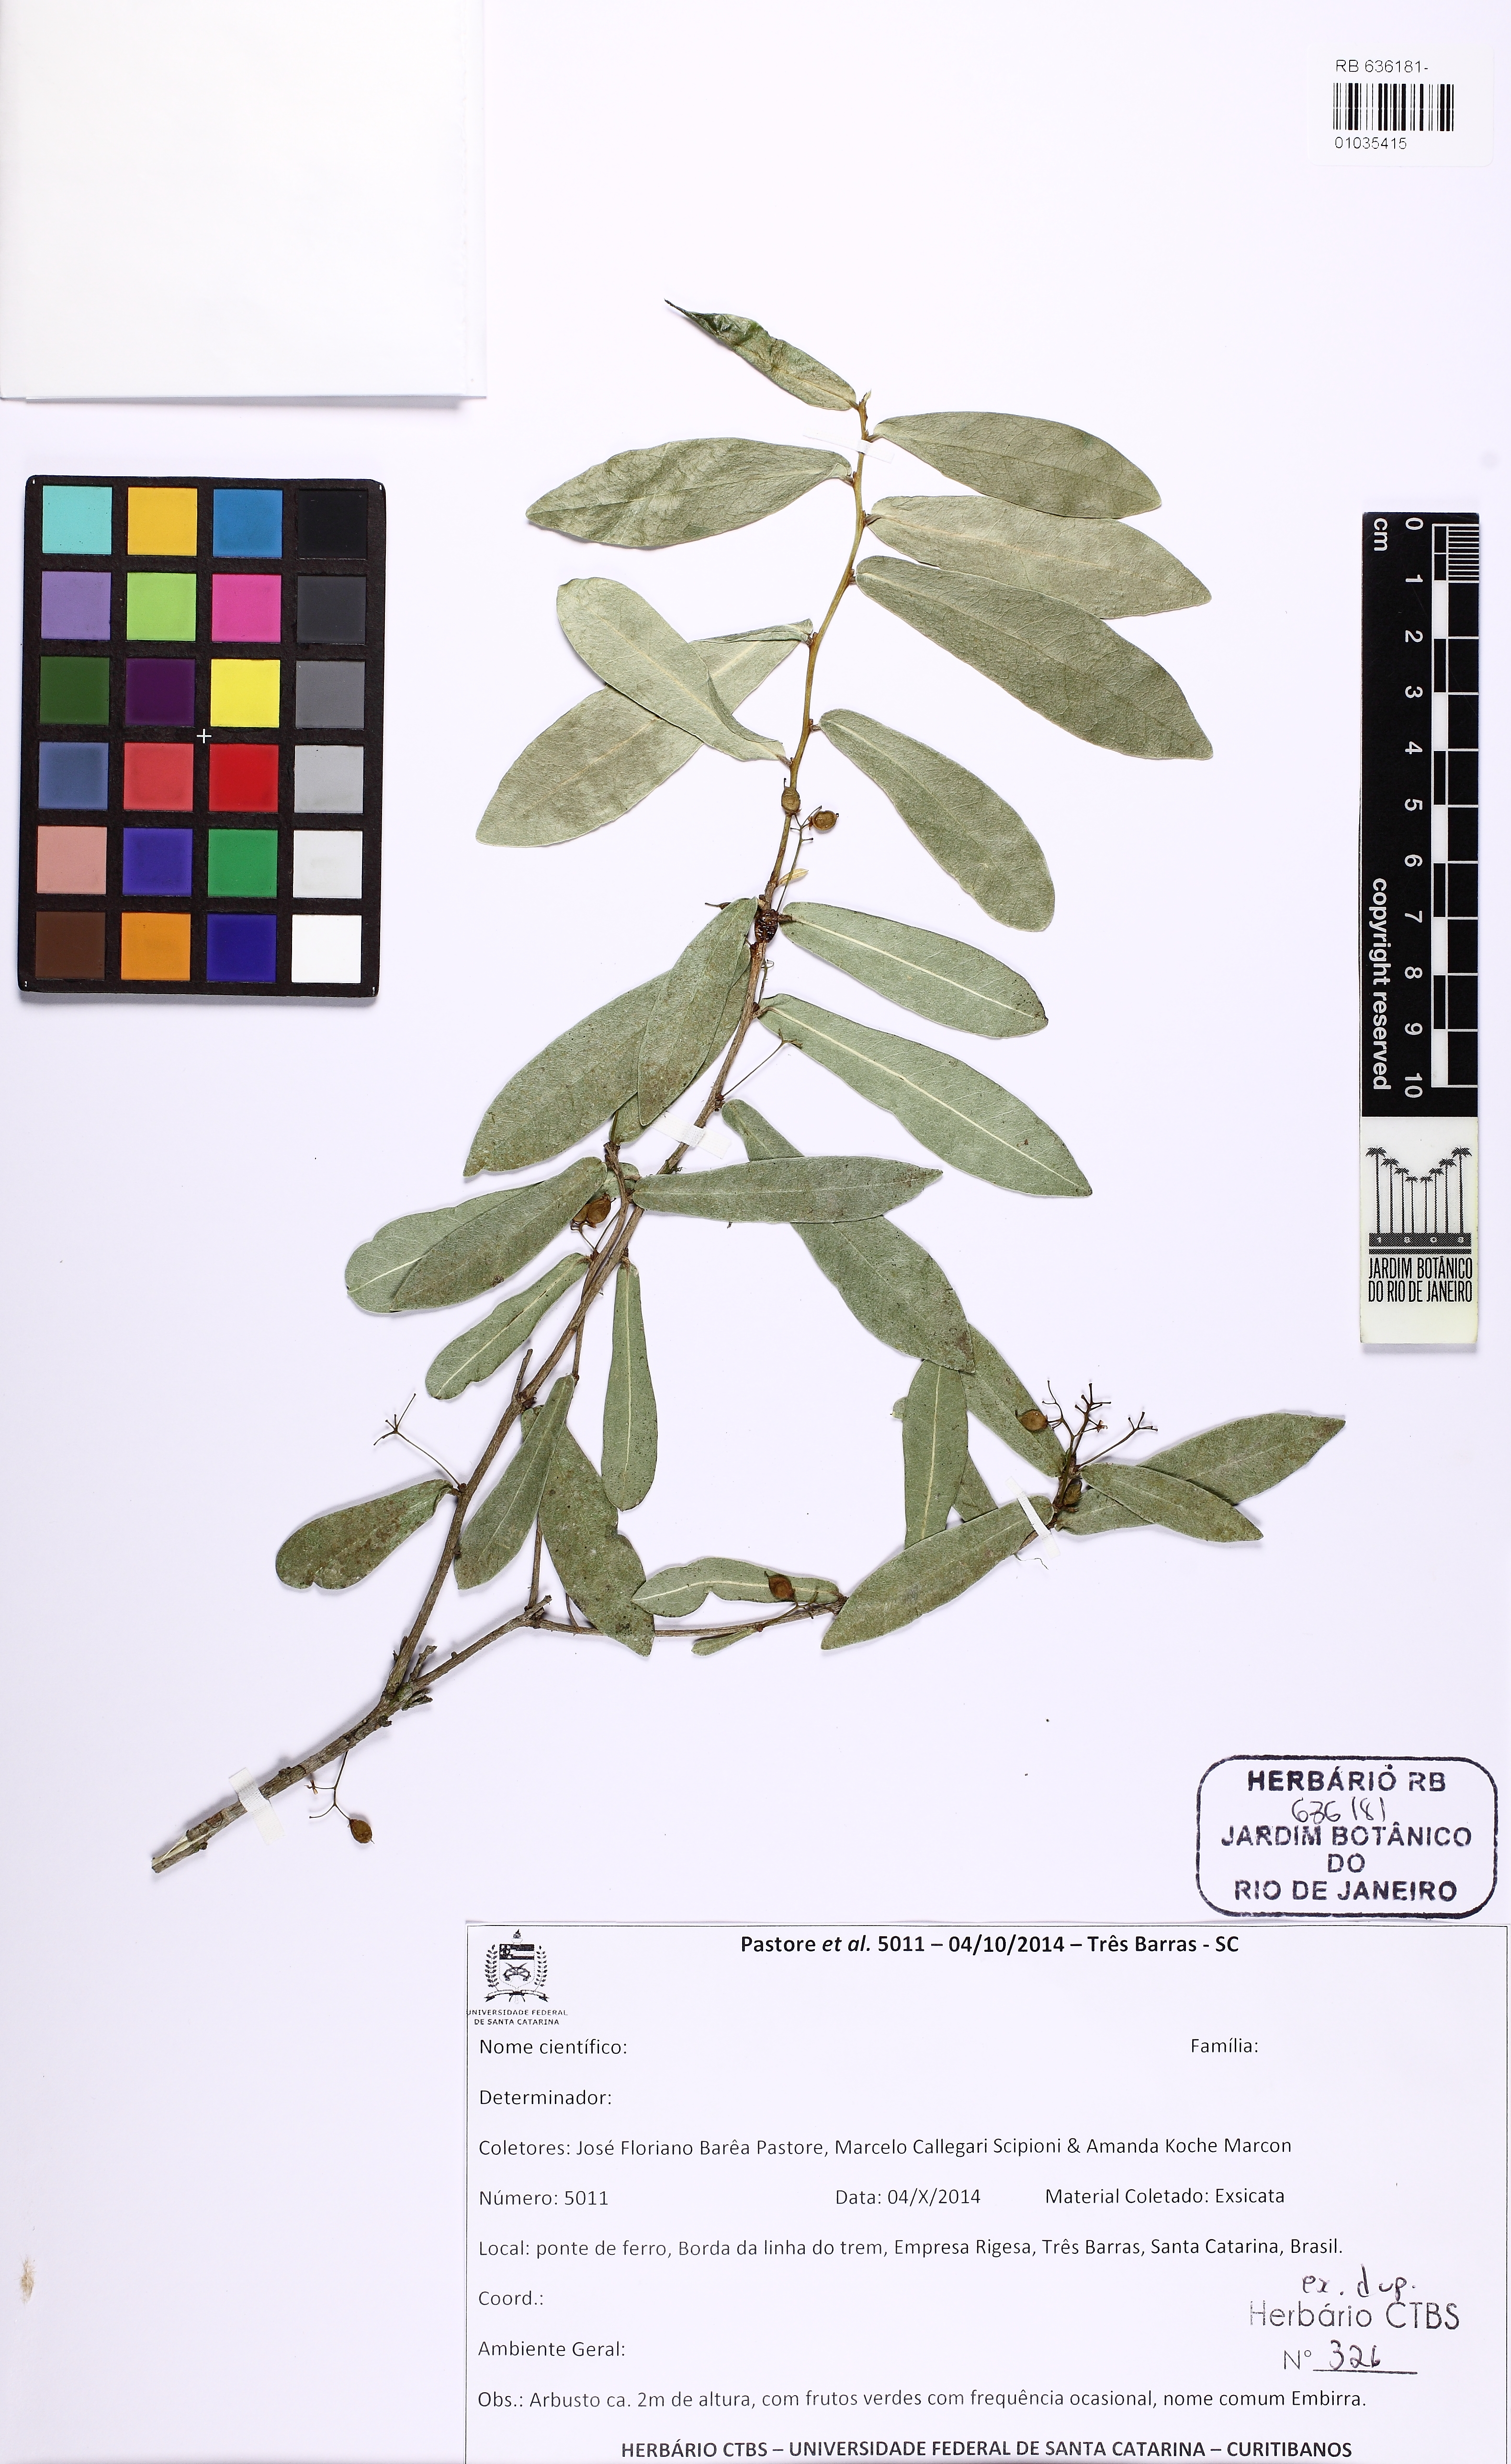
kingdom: Plantae
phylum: Tracheophyta
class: Magnoliopsida
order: Malvales
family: Thymelaeaceae
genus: Daphnopsis
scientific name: Daphnopsis racemosa
